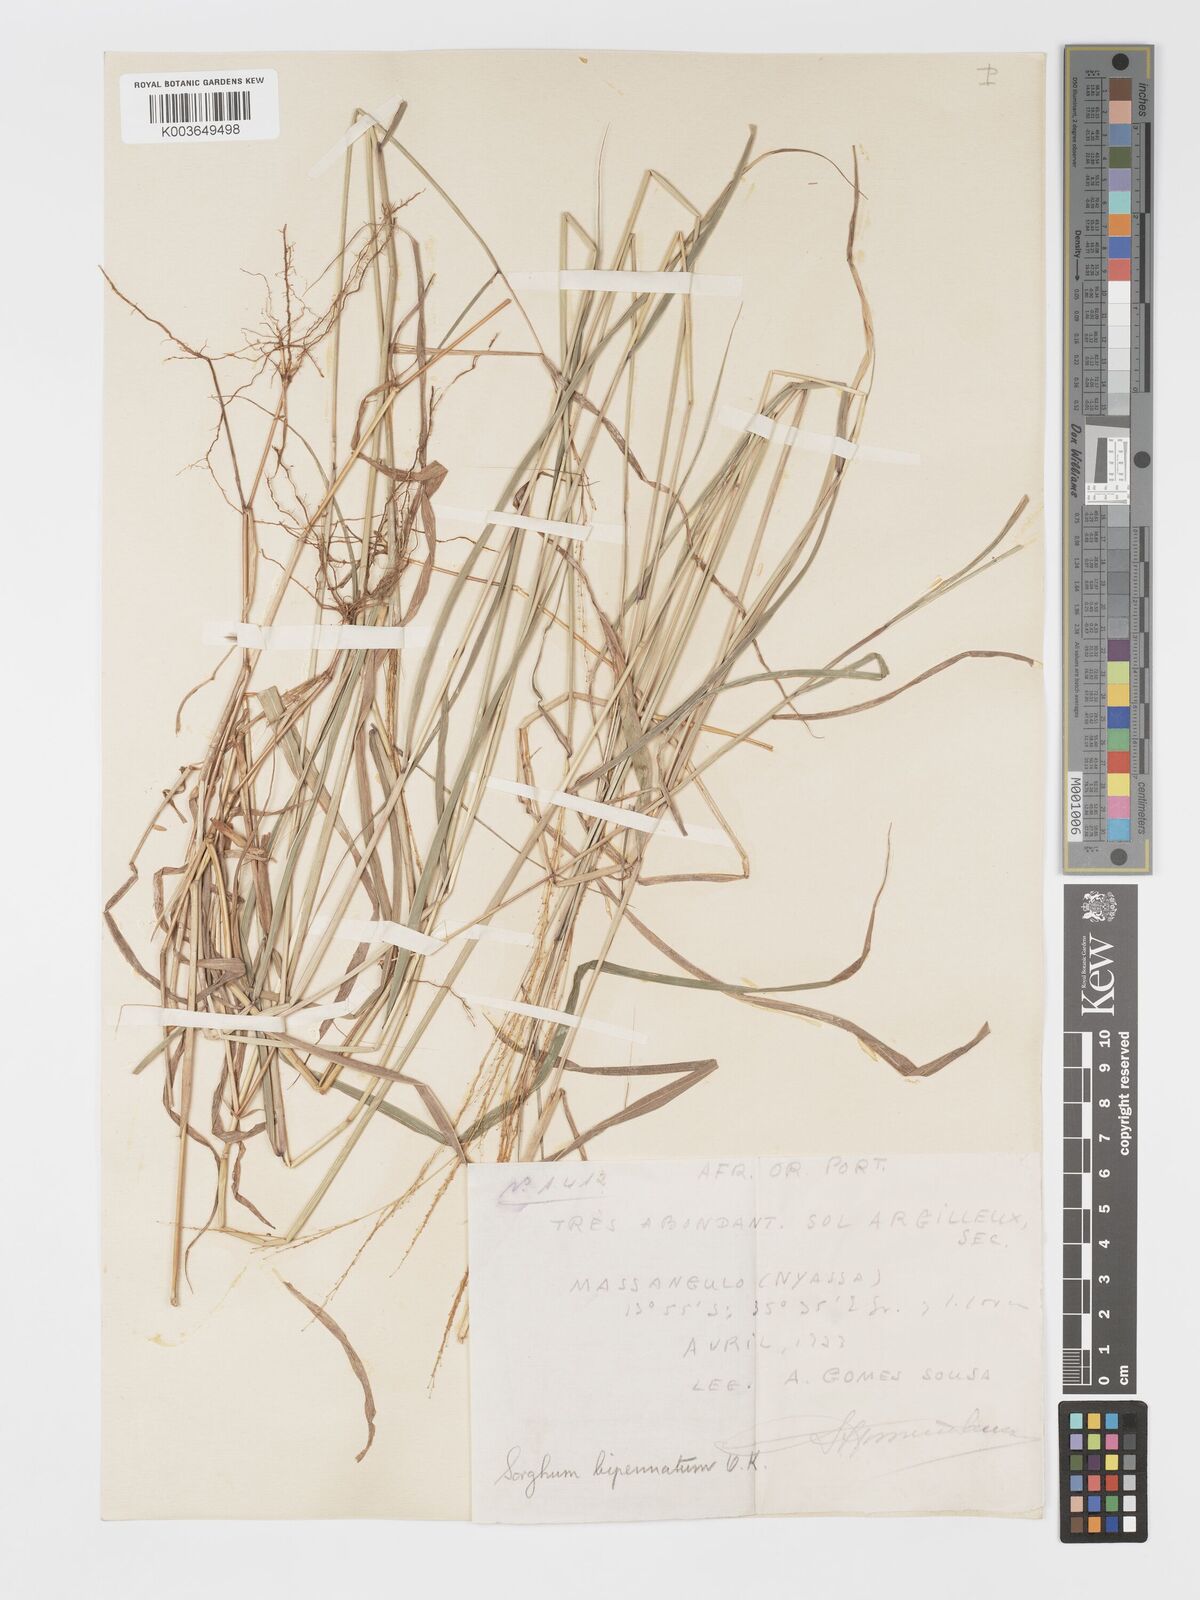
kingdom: Plantae
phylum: Tracheophyta
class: Liliopsida
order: Poales
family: Poaceae
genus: Sorghastrum
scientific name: Sorghastrum incompletum
